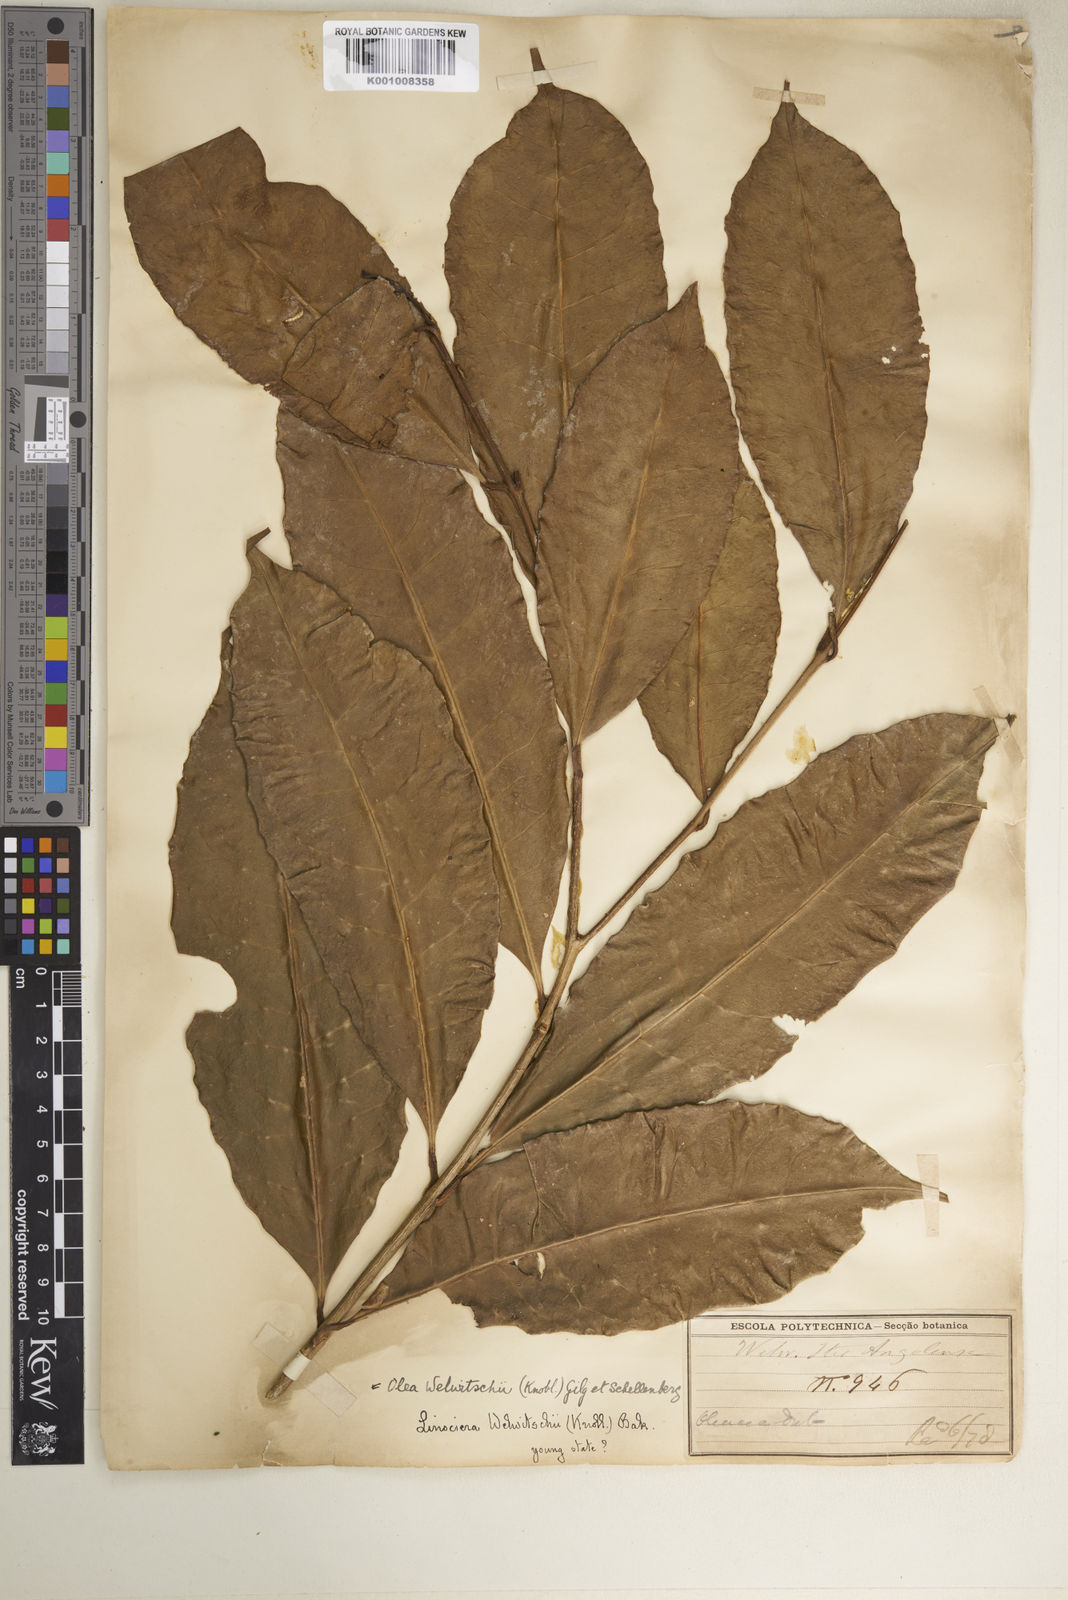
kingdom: Plantae
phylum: Tracheophyta
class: Magnoliopsida
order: Lamiales
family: Oleaceae
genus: Olea
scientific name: Olea welwitschii
